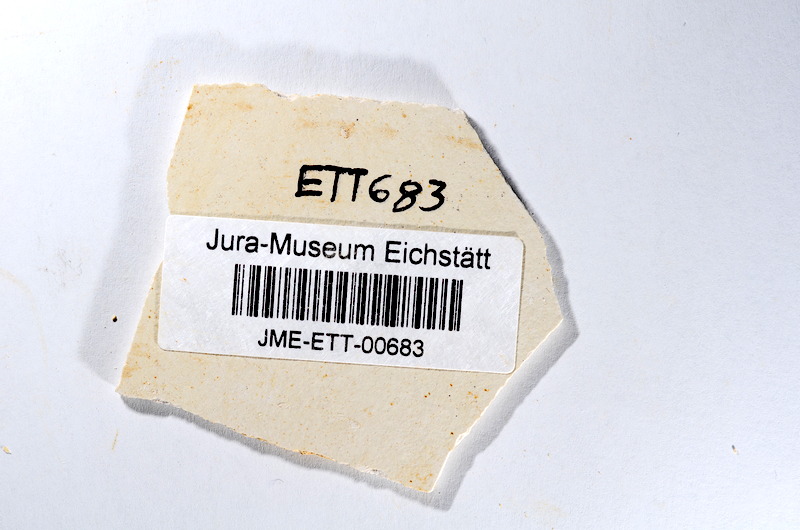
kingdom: Animalia
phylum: Chordata
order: Salmoniformes
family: Orthogonikleithridae
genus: Orthogonikleithrus
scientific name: Orthogonikleithrus hoelli
